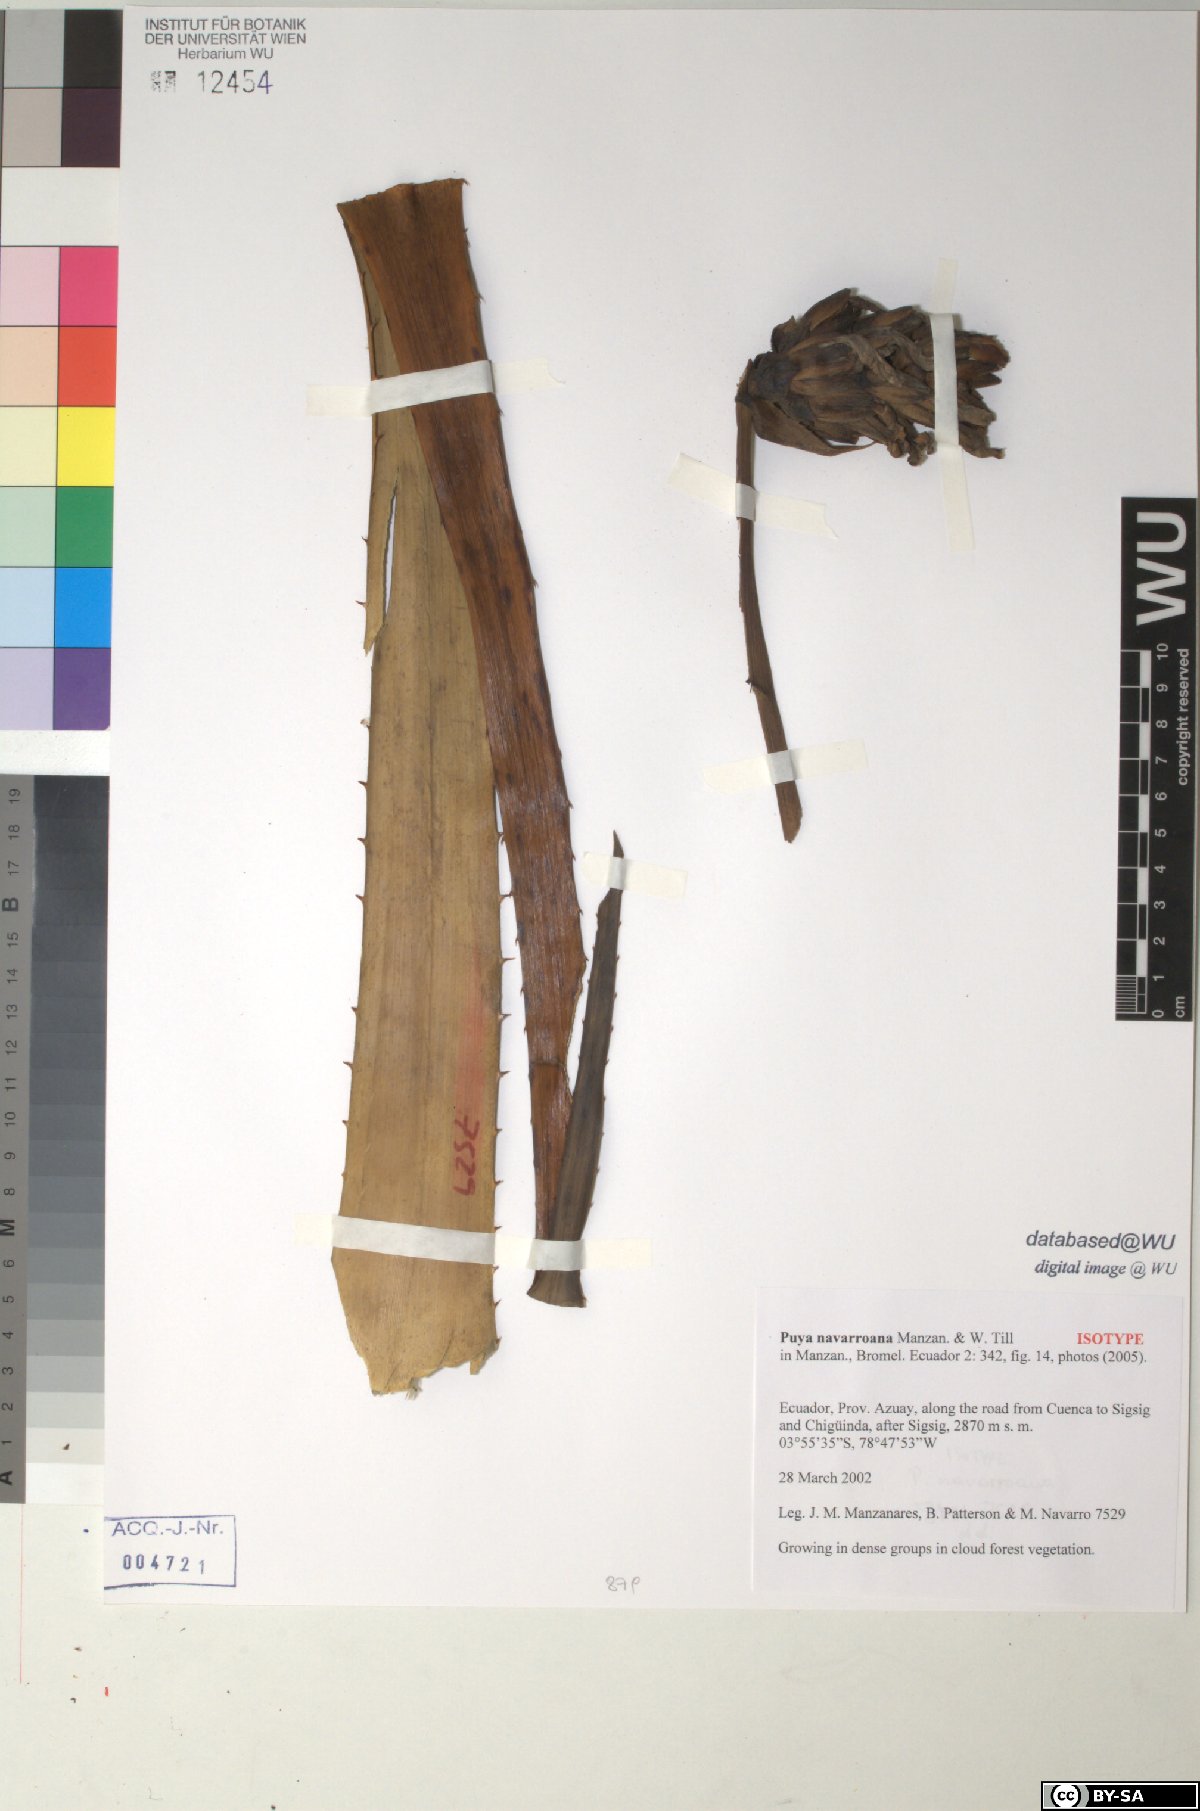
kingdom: Plantae
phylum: Tracheophyta
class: Liliopsida
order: Poales
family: Bromeliaceae
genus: Puya
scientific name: Puya navarroana
